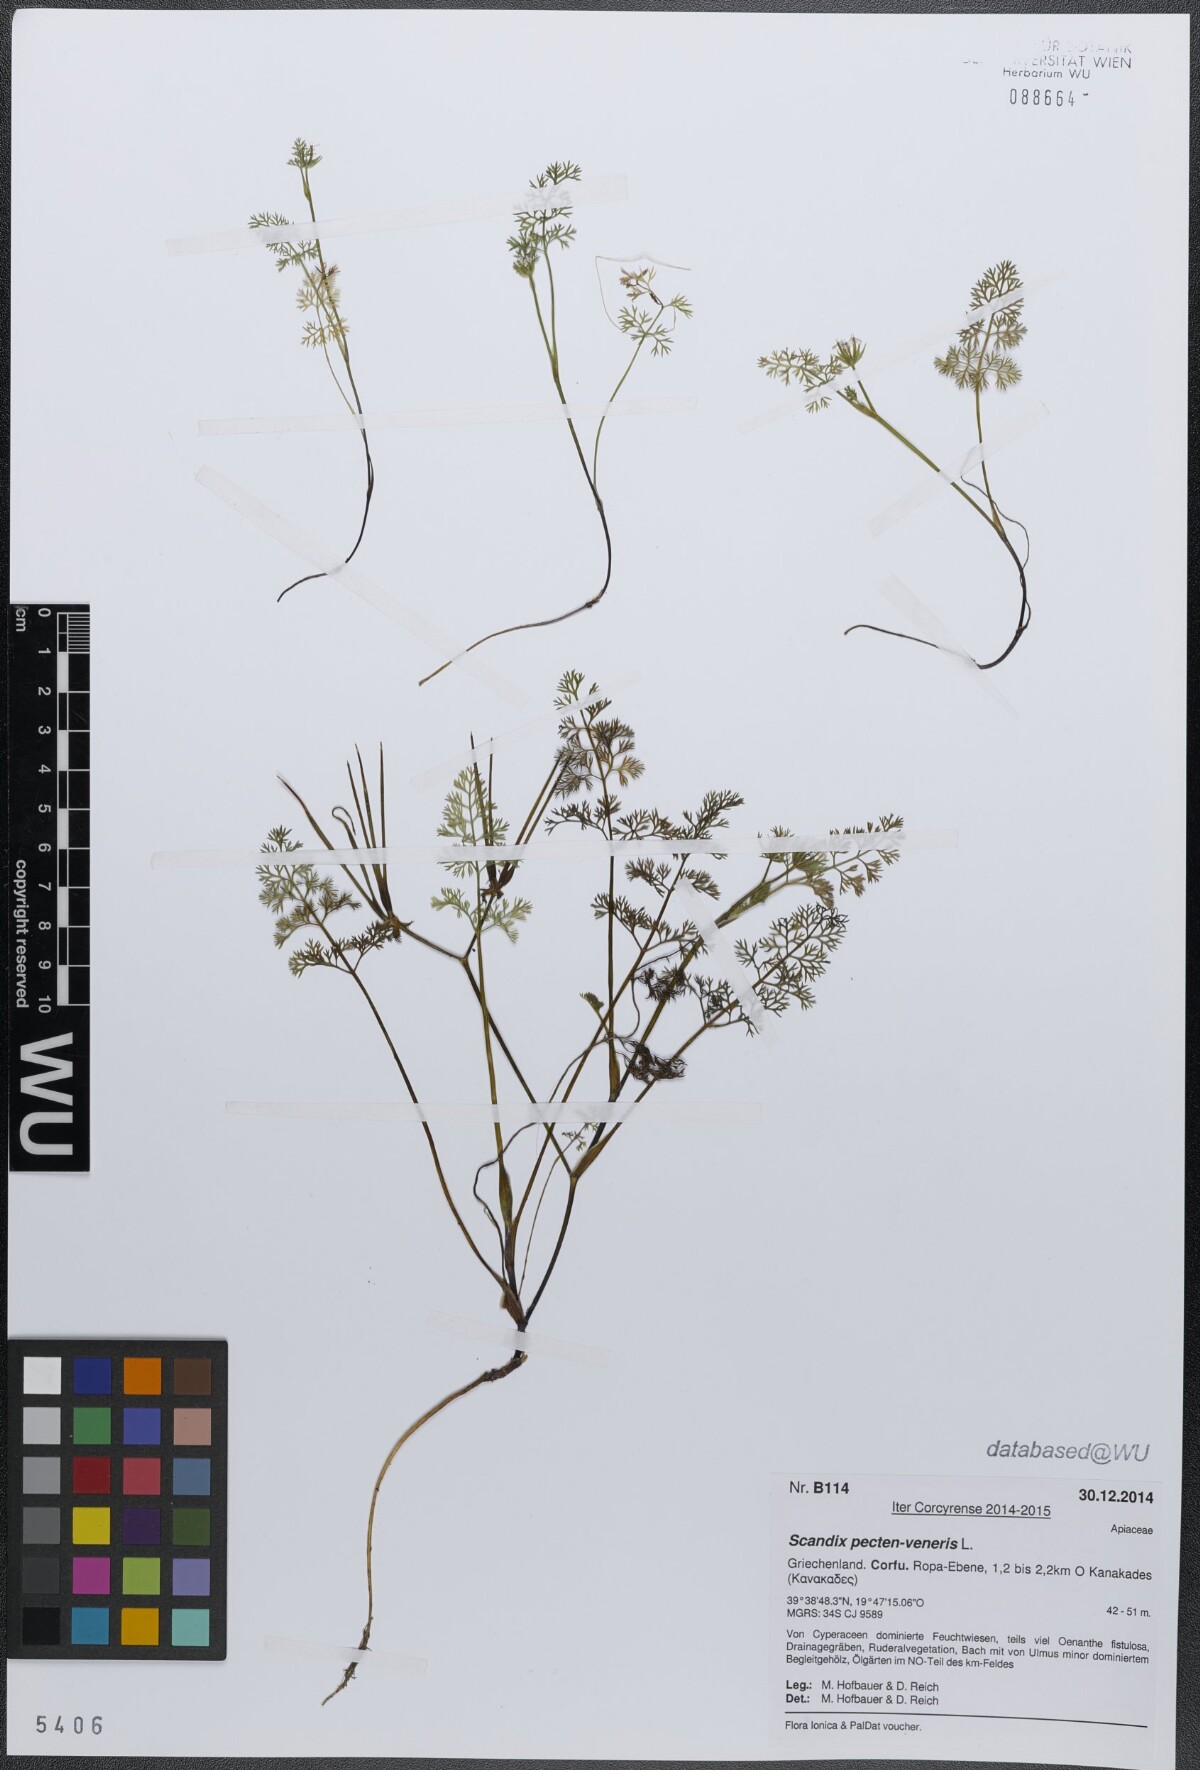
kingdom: Plantae
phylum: Tracheophyta
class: Magnoliopsida
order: Apiales
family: Apiaceae
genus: Scandix
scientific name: Scandix pecten-veneris
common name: Shepherd's-needle
